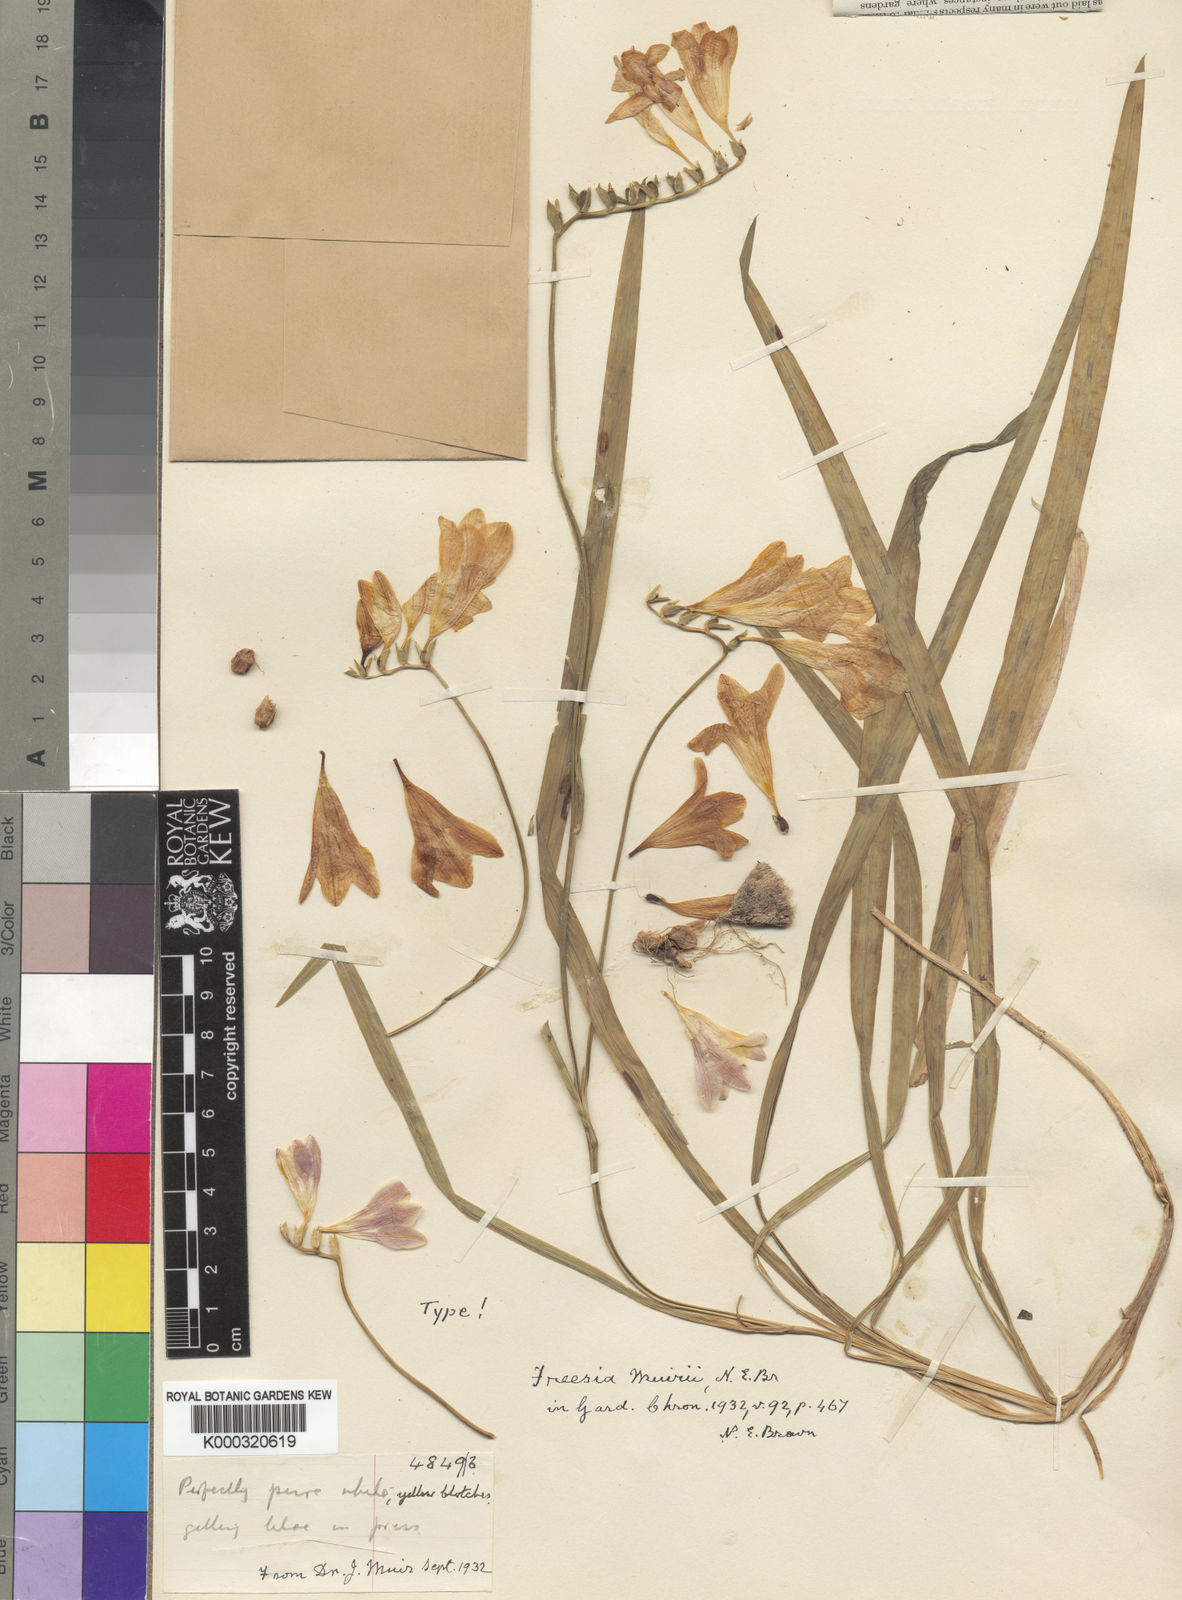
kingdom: Plantae
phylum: Tracheophyta
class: Liliopsida
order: Asparagales
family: Iridaceae
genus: Freesia
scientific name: Freesia leichtlinii
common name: Freesia
